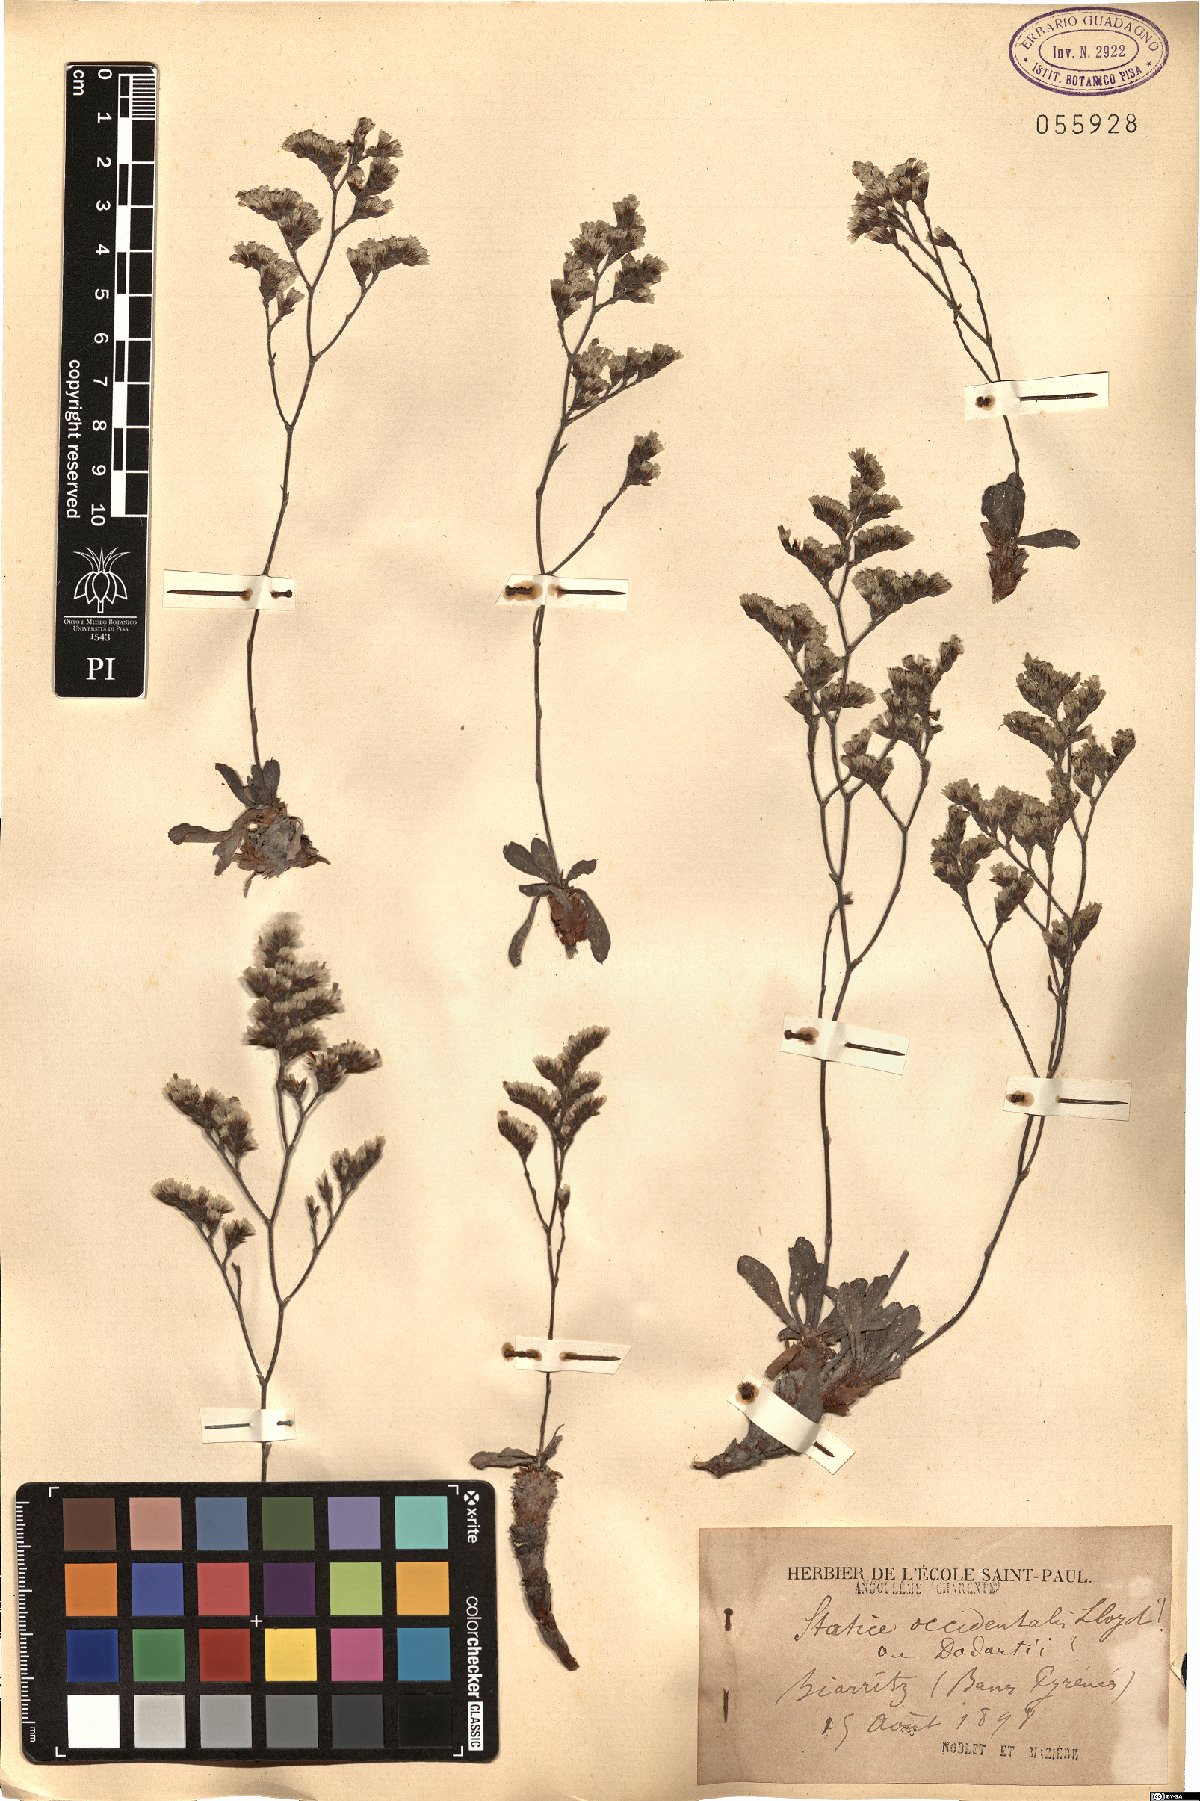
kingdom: Plantae
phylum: Tracheophyta
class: Magnoliopsida
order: Caryophyllales
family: Plumbaginaceae
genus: Limonium
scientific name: Limonium occidentale
